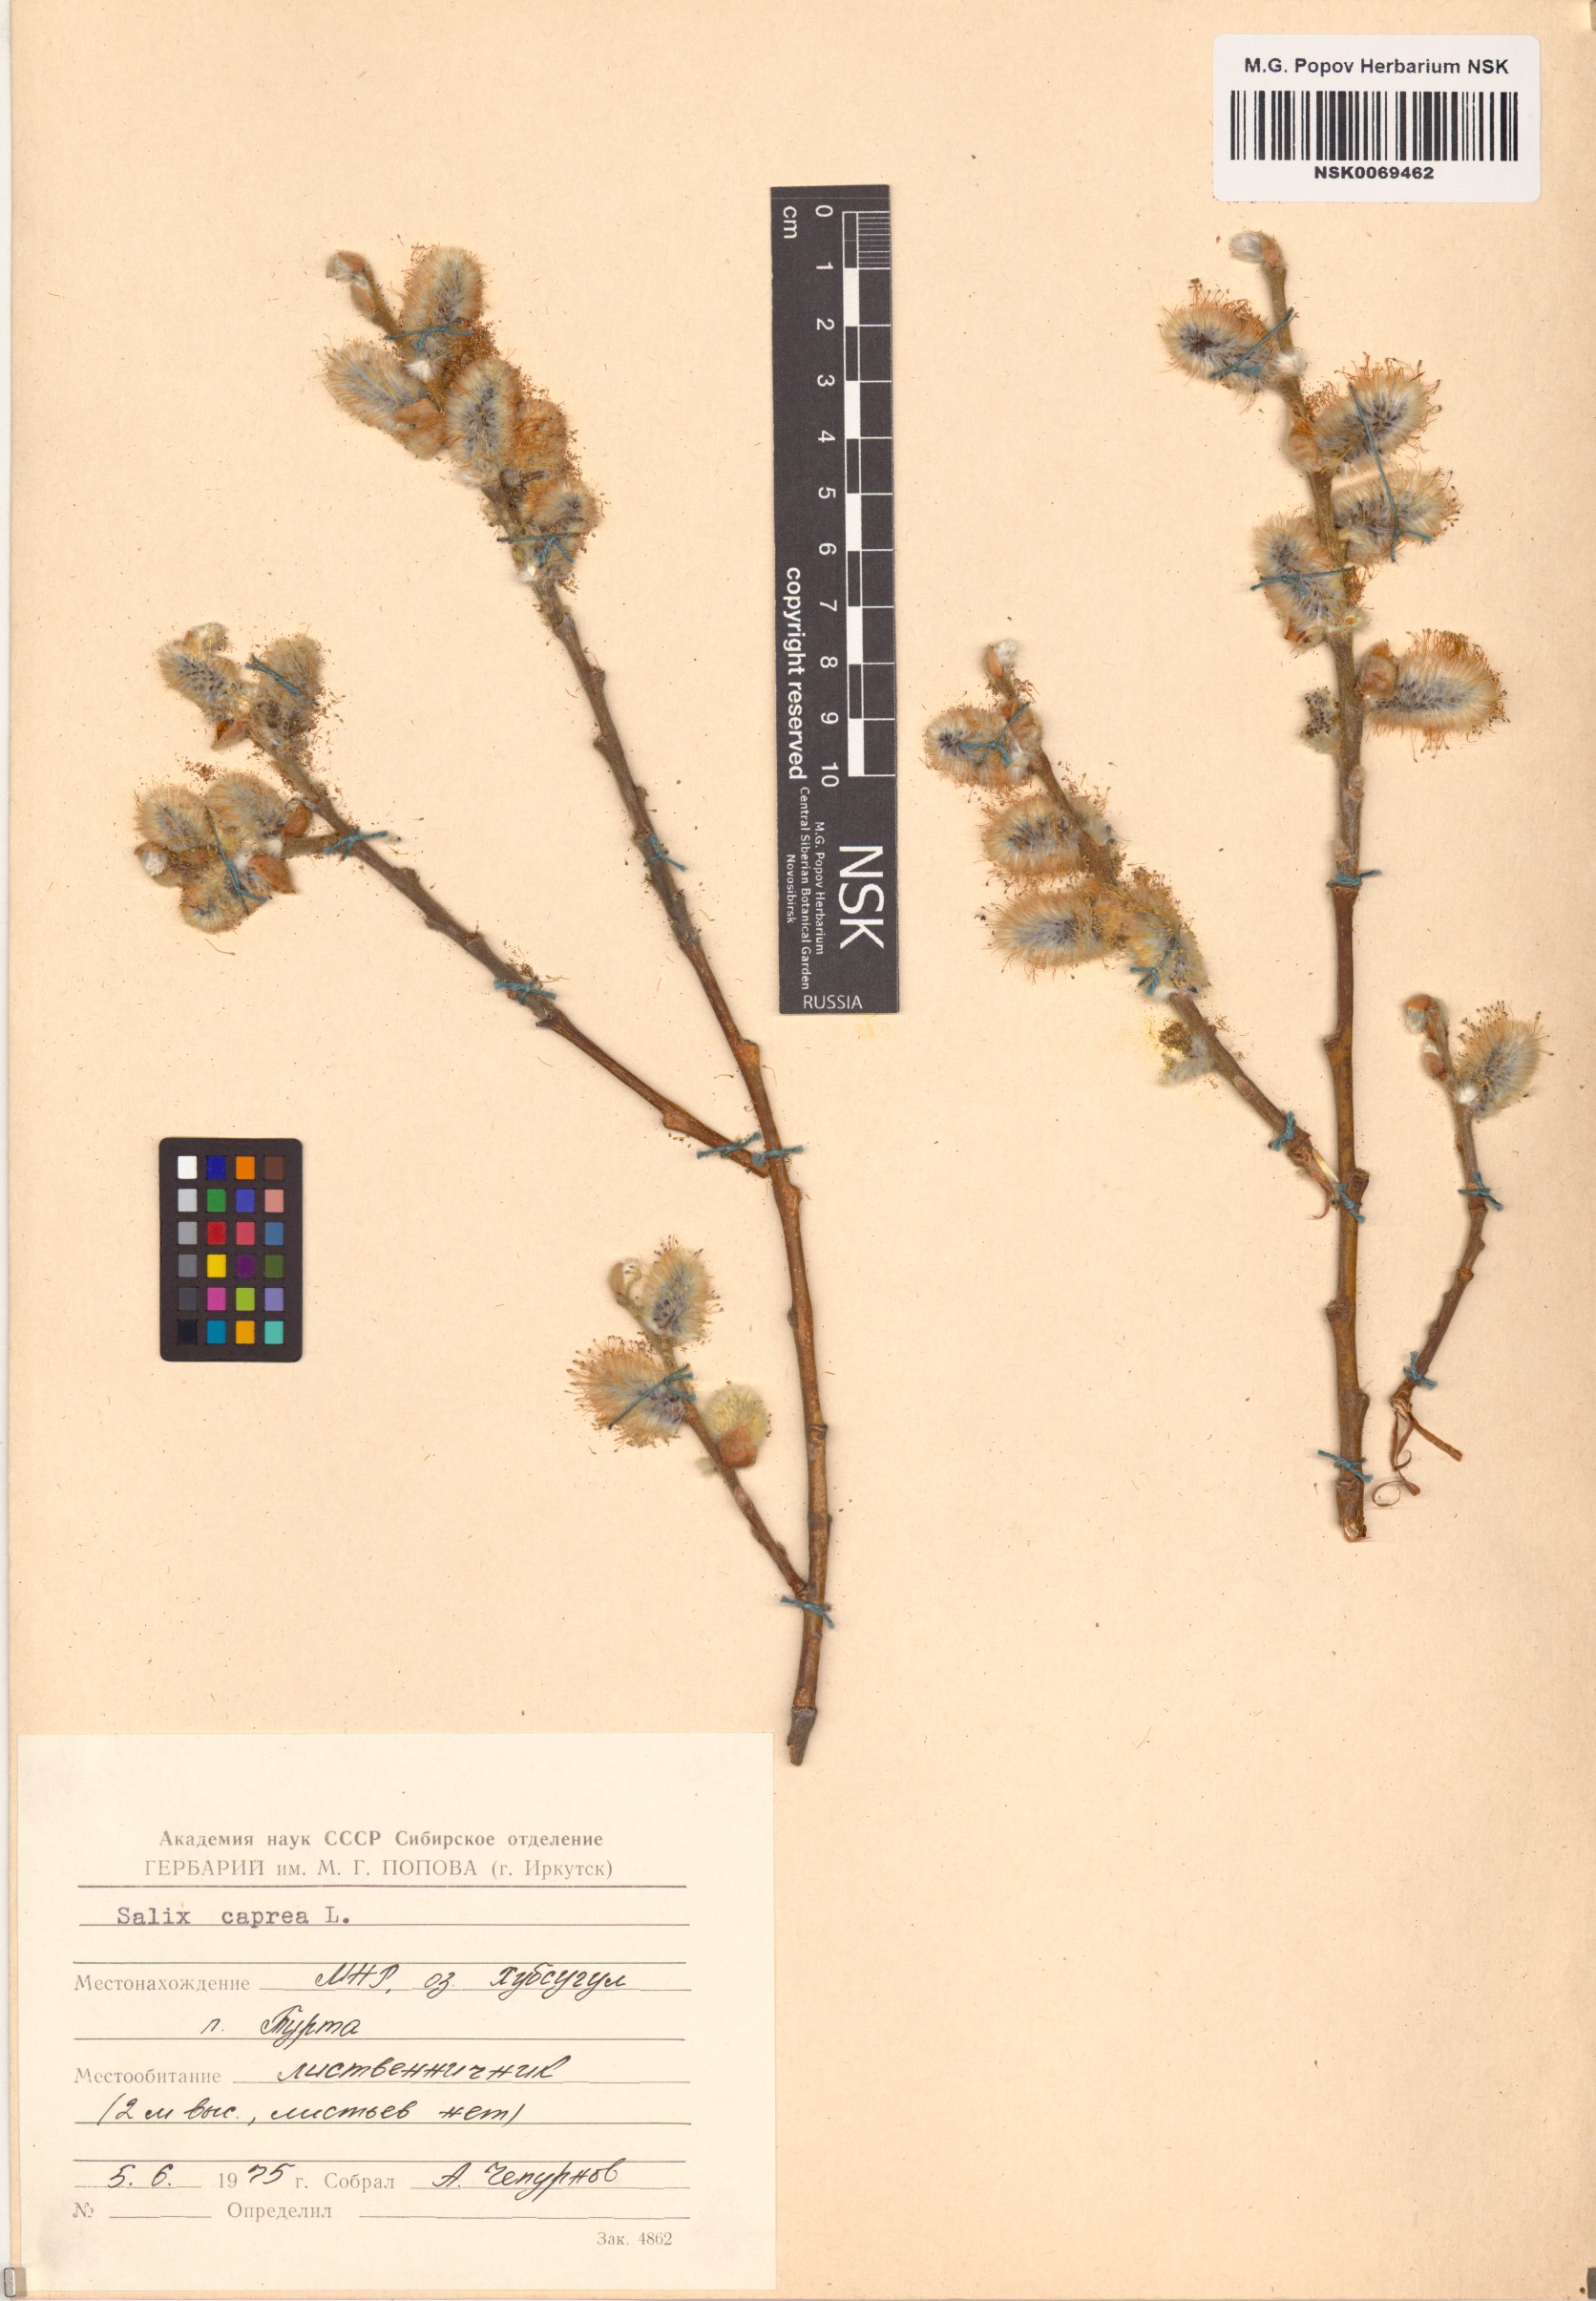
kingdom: Plantae
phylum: Tracheophyta
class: Magnoliopsida
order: Malpighiales
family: Salicaceae
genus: Salix
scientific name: Salix caprea
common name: Goat willow
